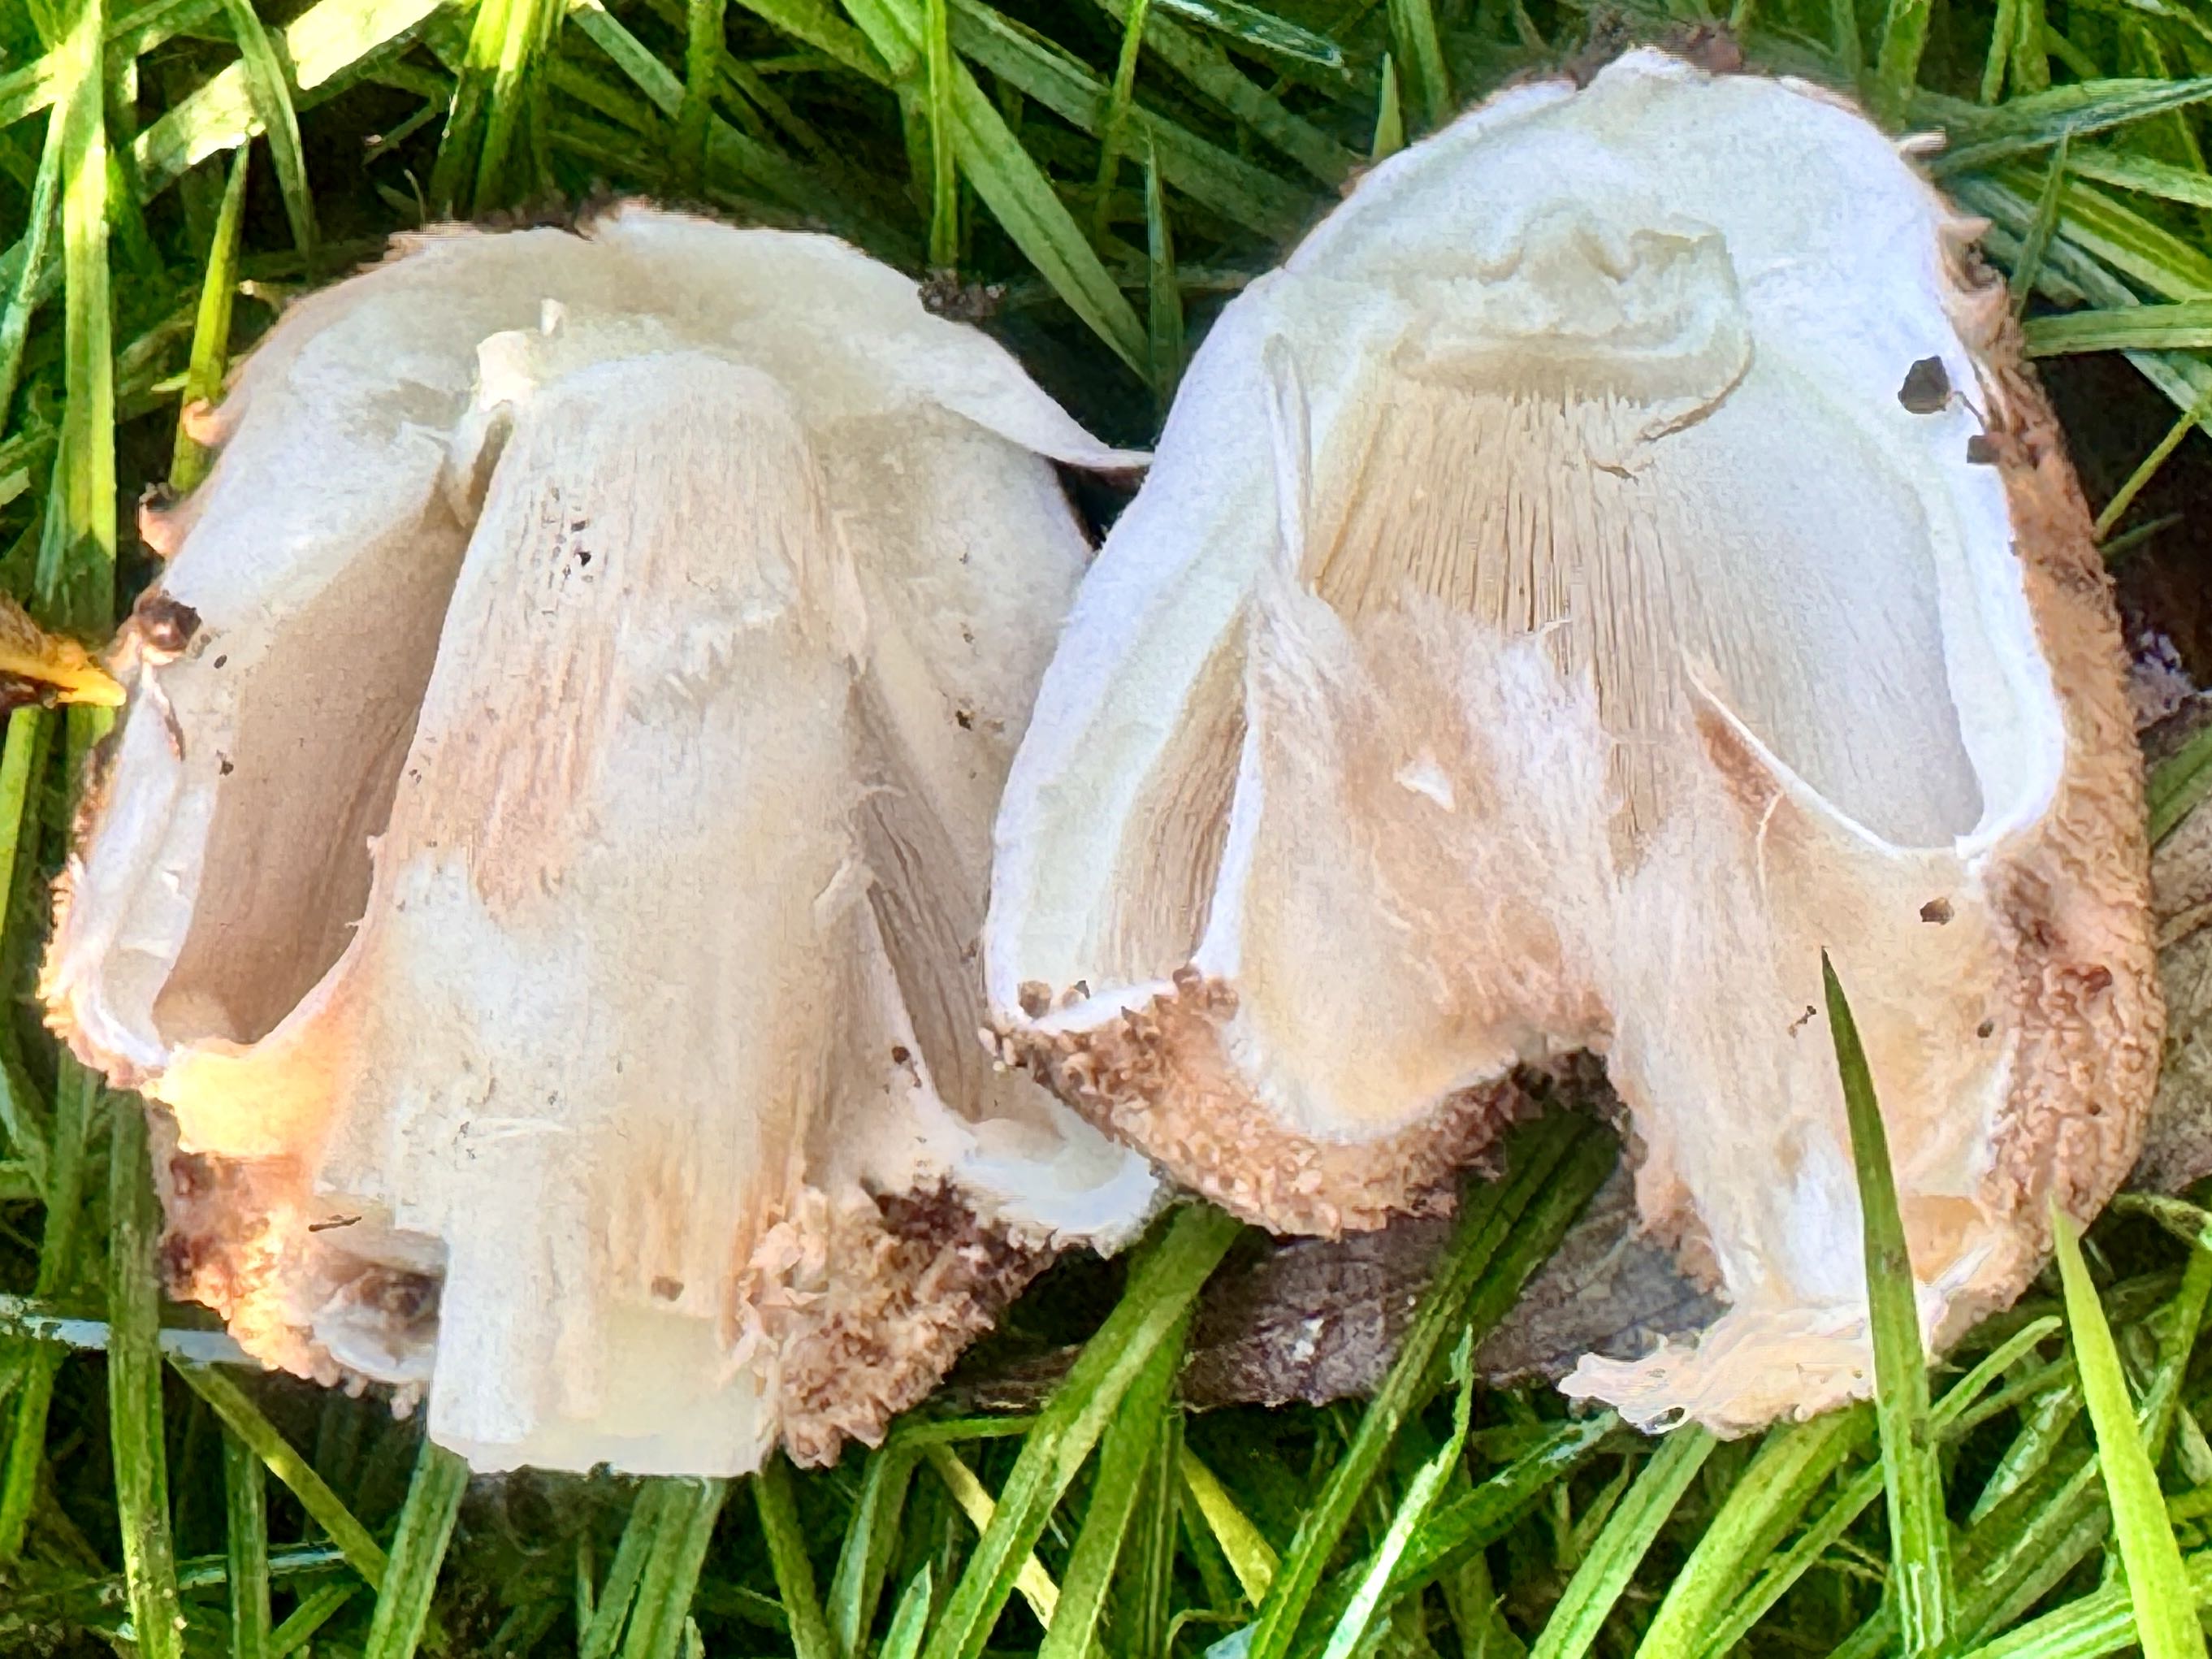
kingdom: Fungi
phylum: Basidiomycota
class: Agaricomycetes
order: Agaricales
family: Agaricaceae
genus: Echinoderma
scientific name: Echinoderma asperum
